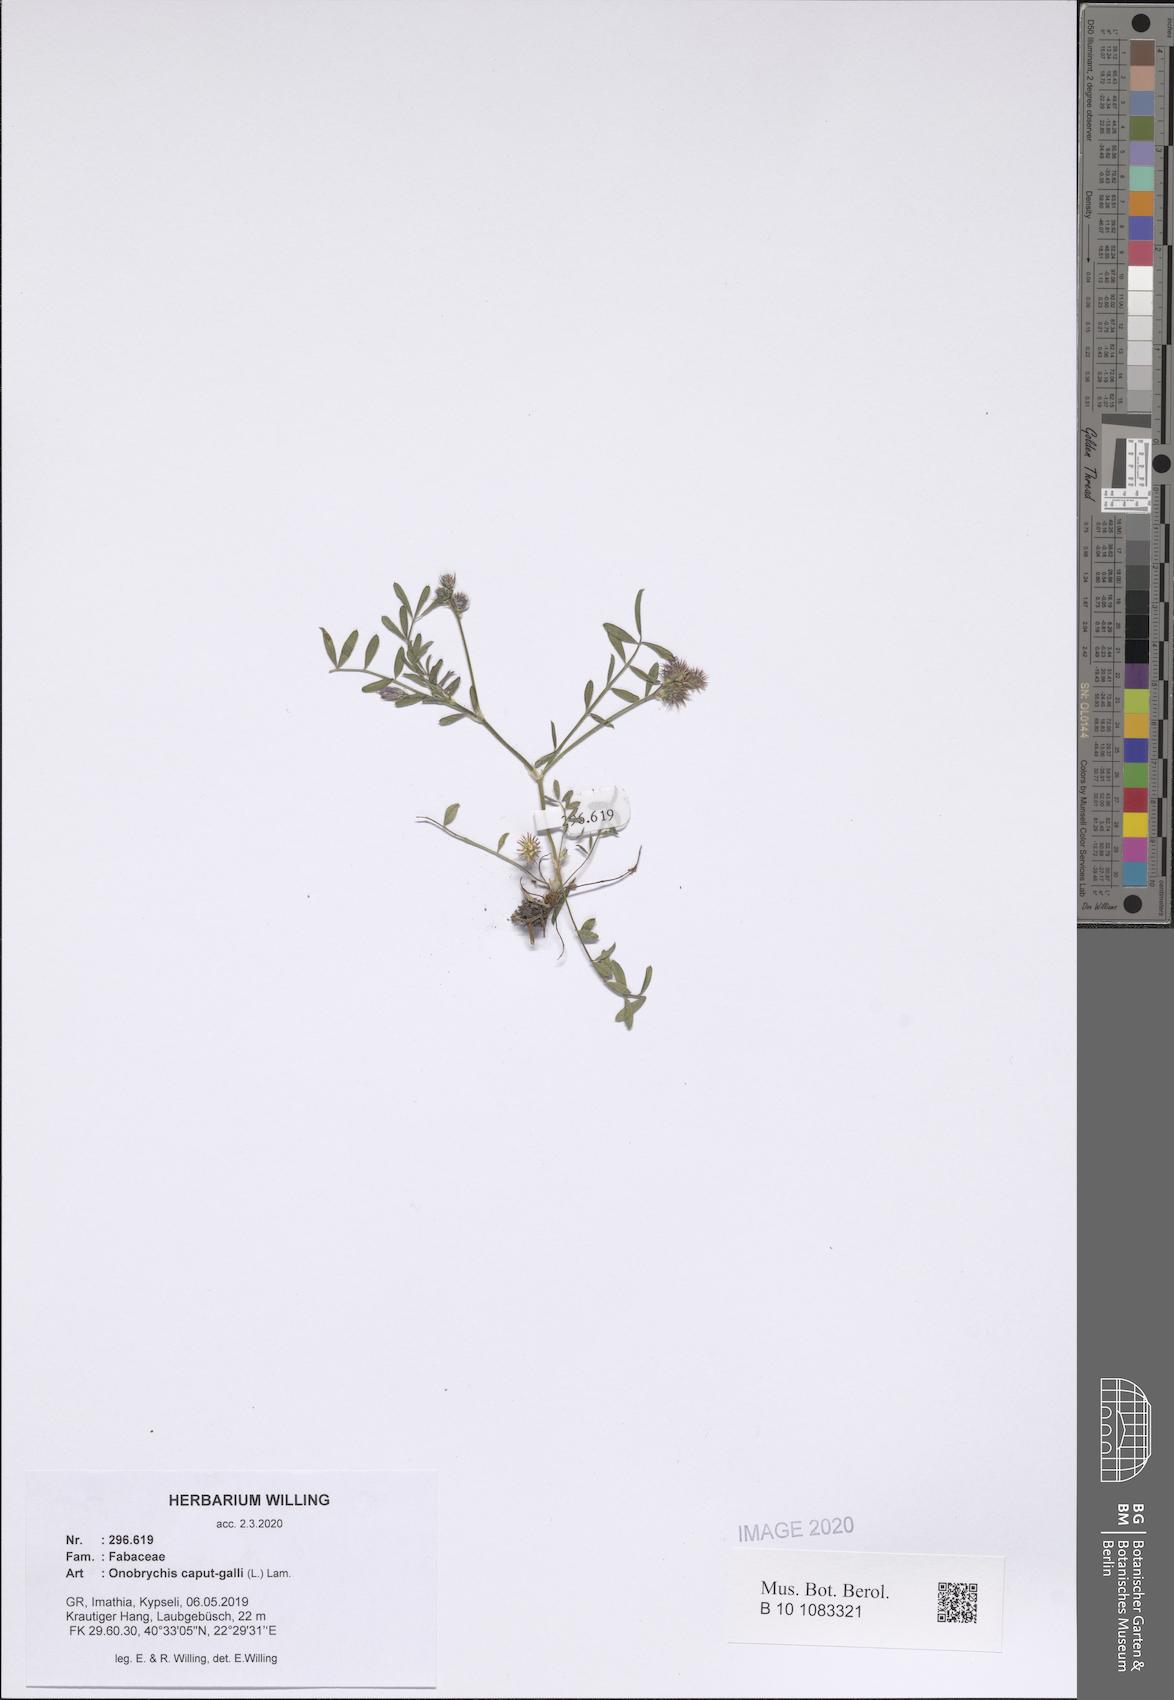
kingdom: Plantae
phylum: Tracheophyta
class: Magnoliopsida
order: Fabales
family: Fabaceae
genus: Onobrychis
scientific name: Onobrychis caput-galli
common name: Cockscomb sainfoin
